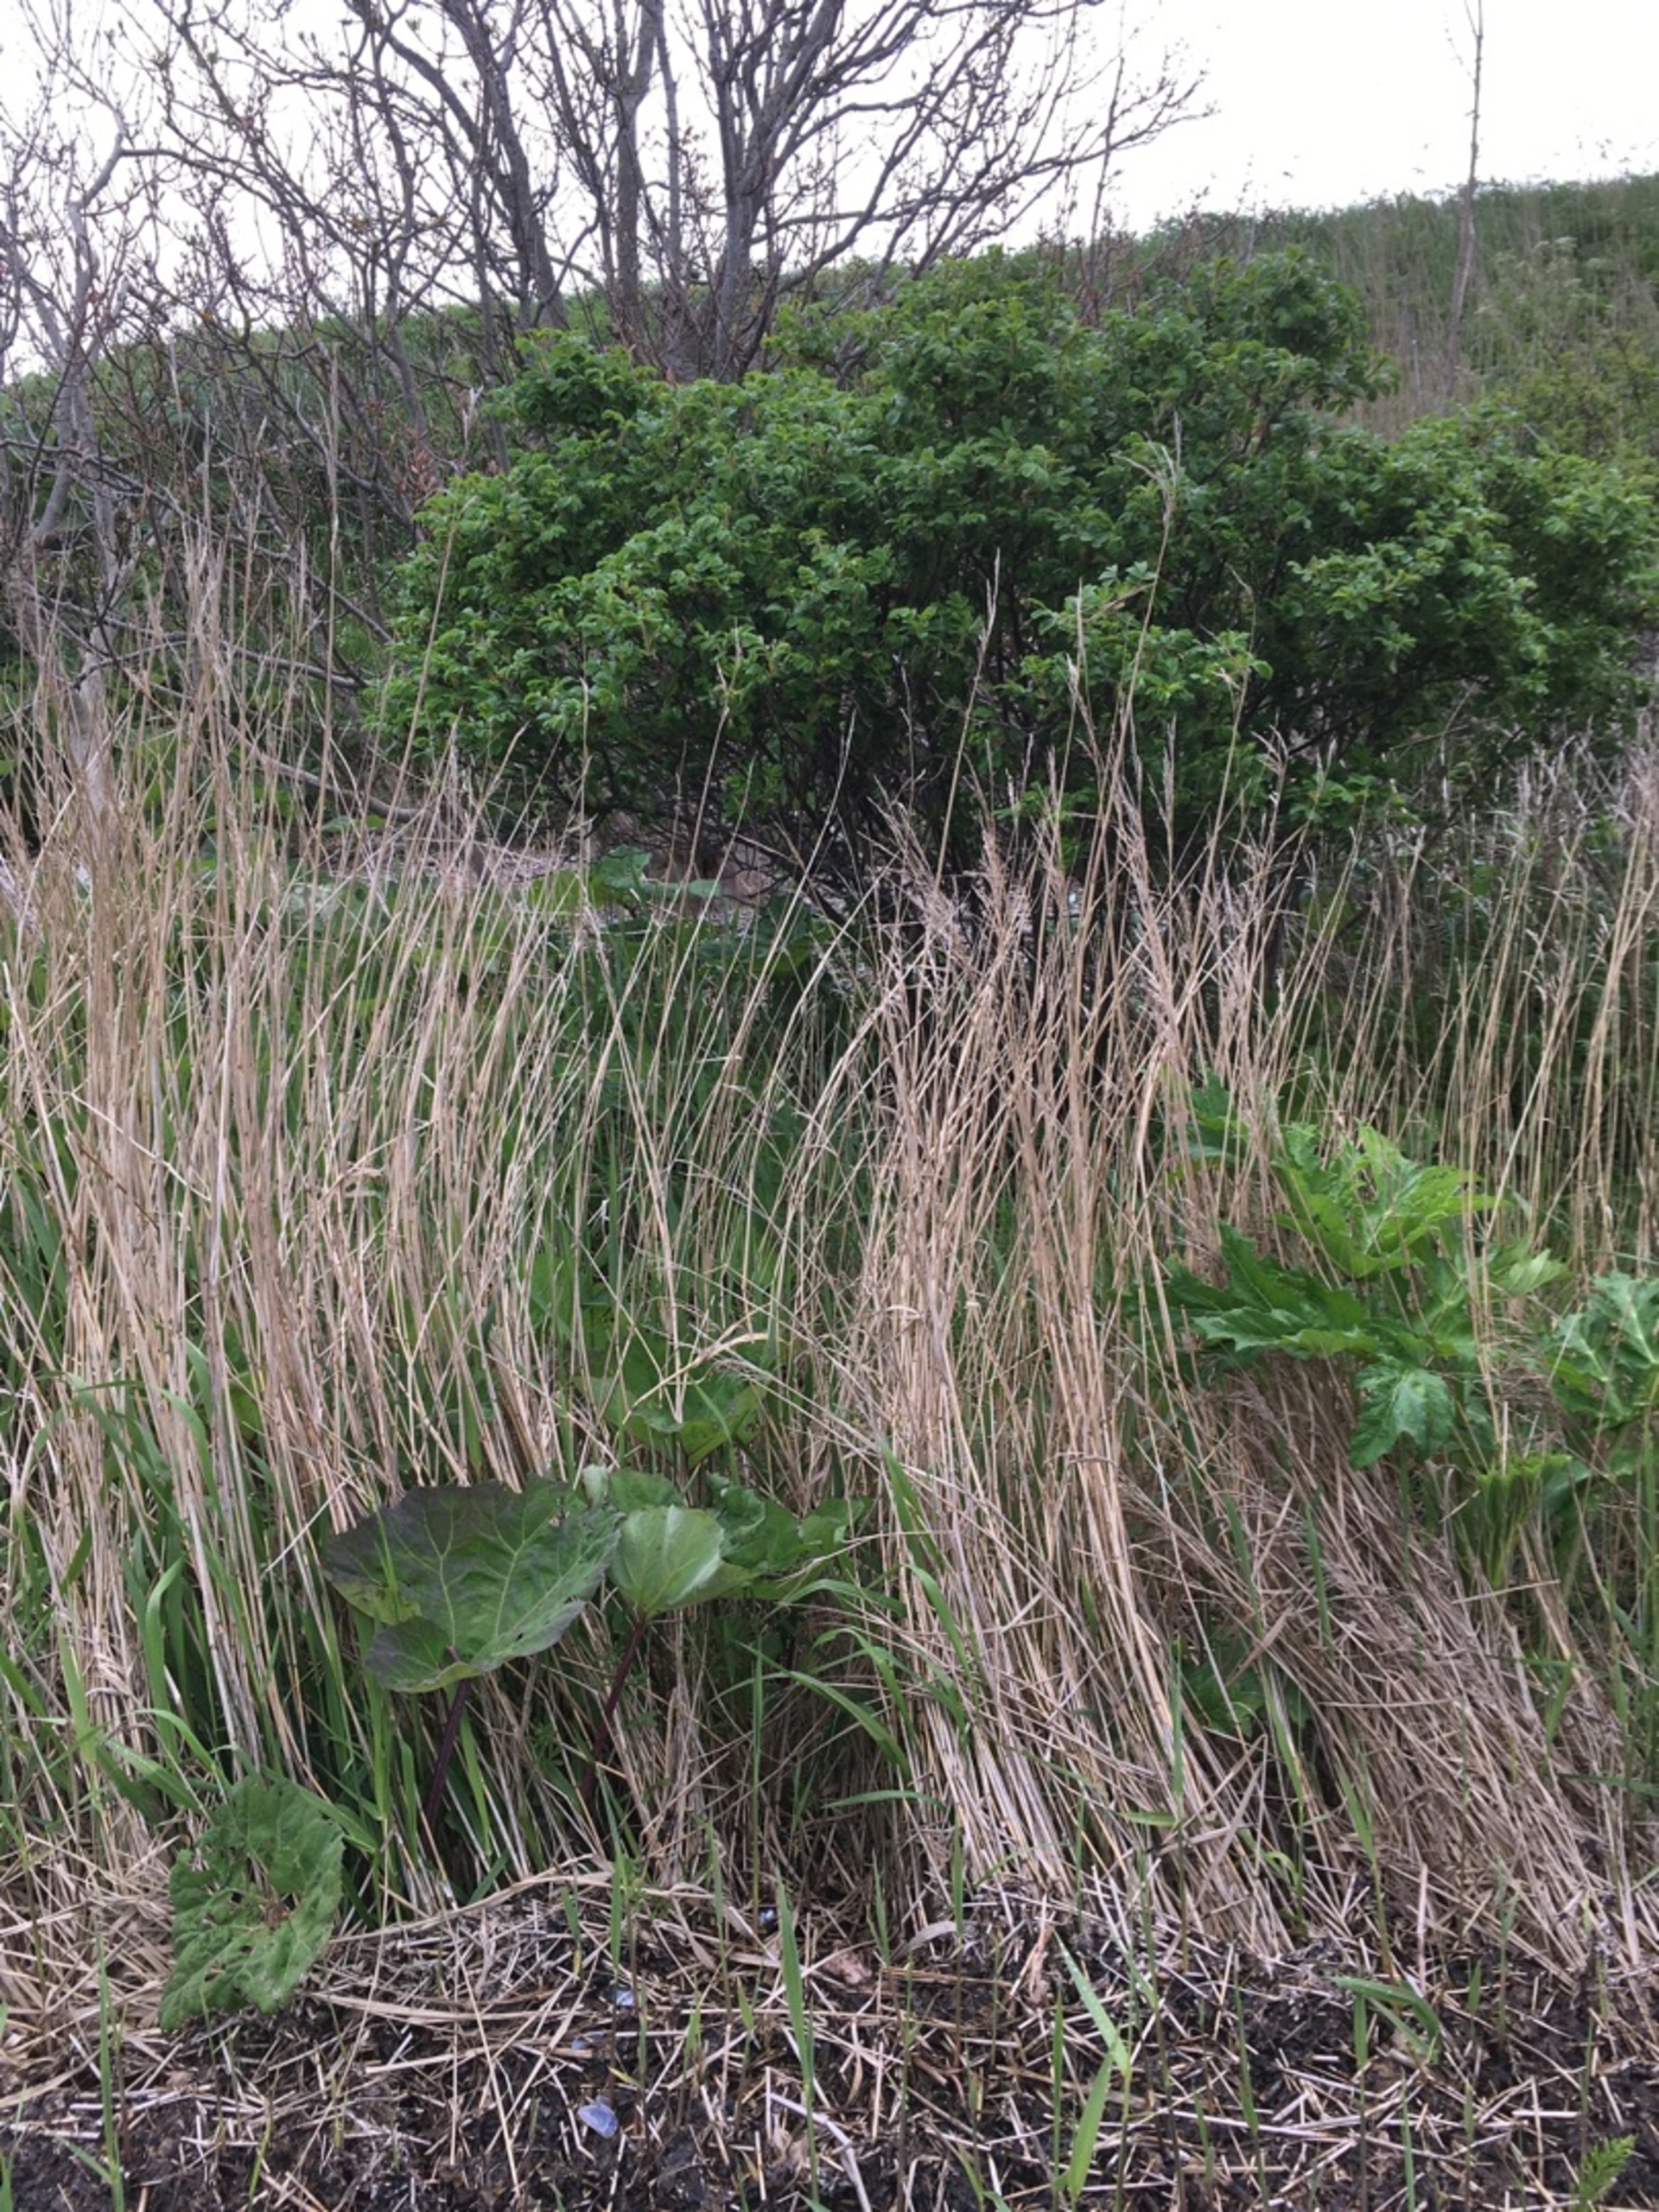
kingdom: Plantae
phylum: Tracheophyta
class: Magnoliopsida
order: Rosales
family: Rosaceae
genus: Rosa
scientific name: Rosa rugosa
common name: Rynket rose
